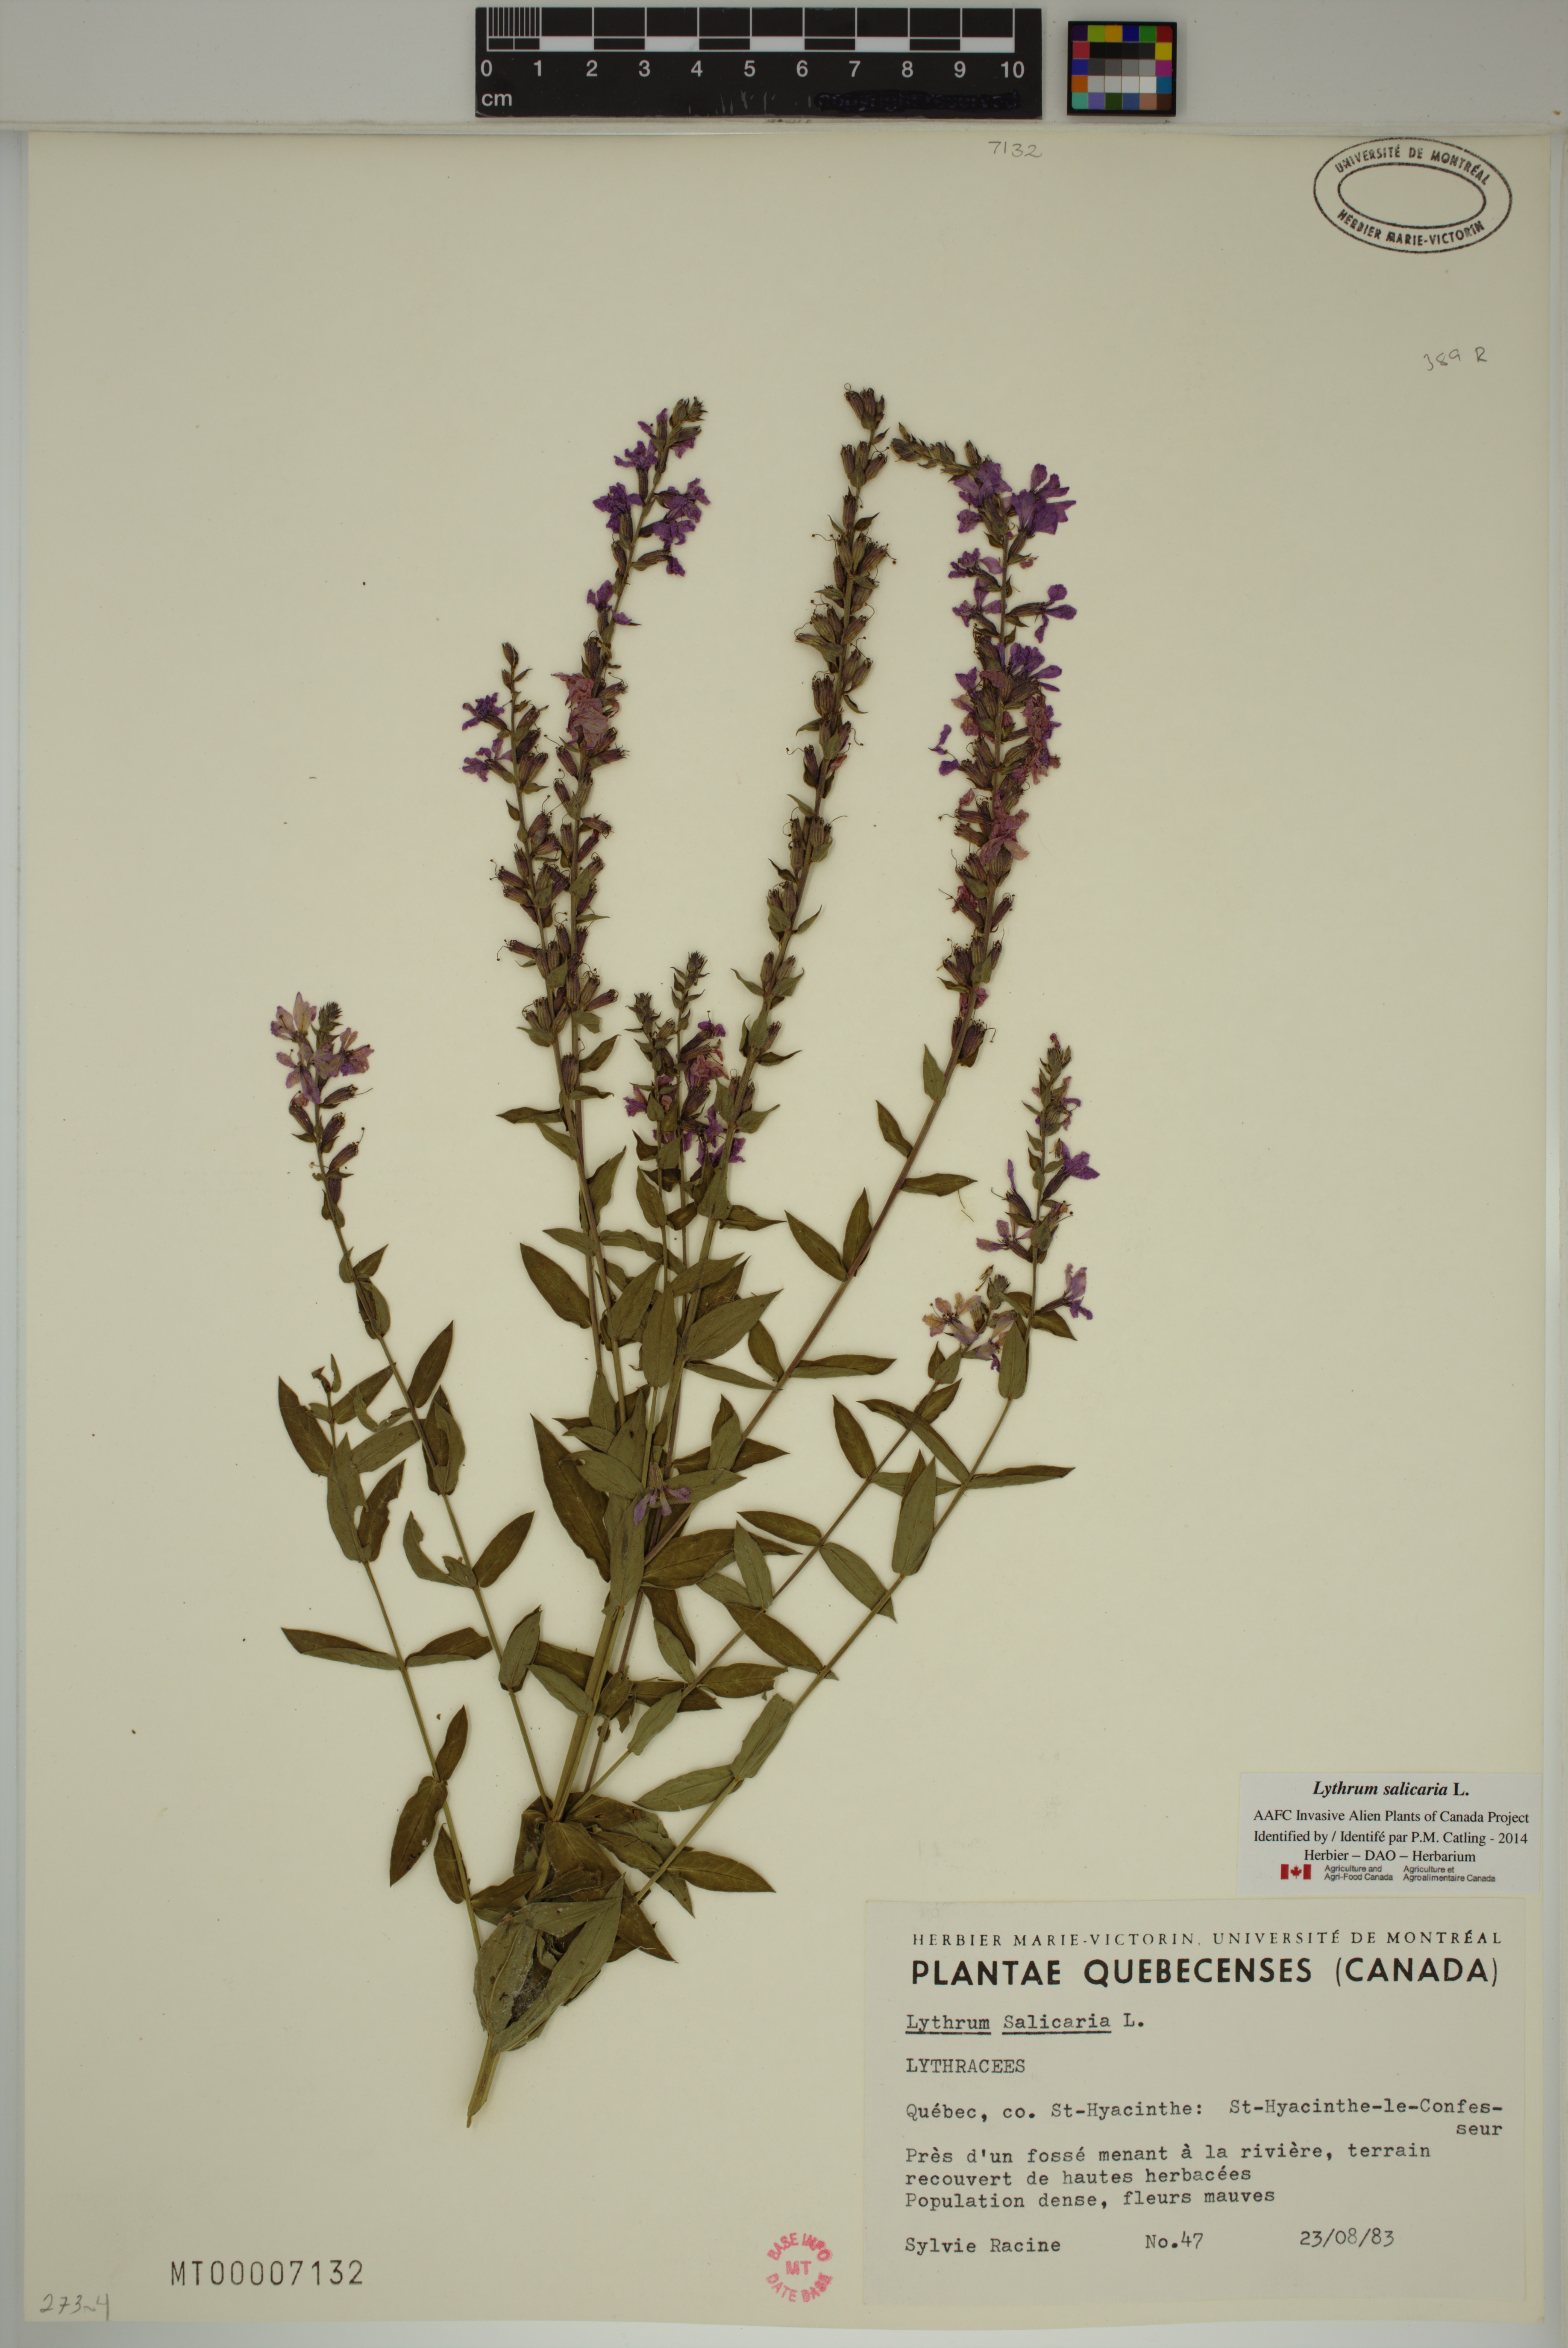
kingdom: Plantae
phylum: Tracheophyta
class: Magnoliopsida
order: Myrtales
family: Lythraceae
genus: Lythrum
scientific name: Lythrum salicaria
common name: Purple loosestrife
